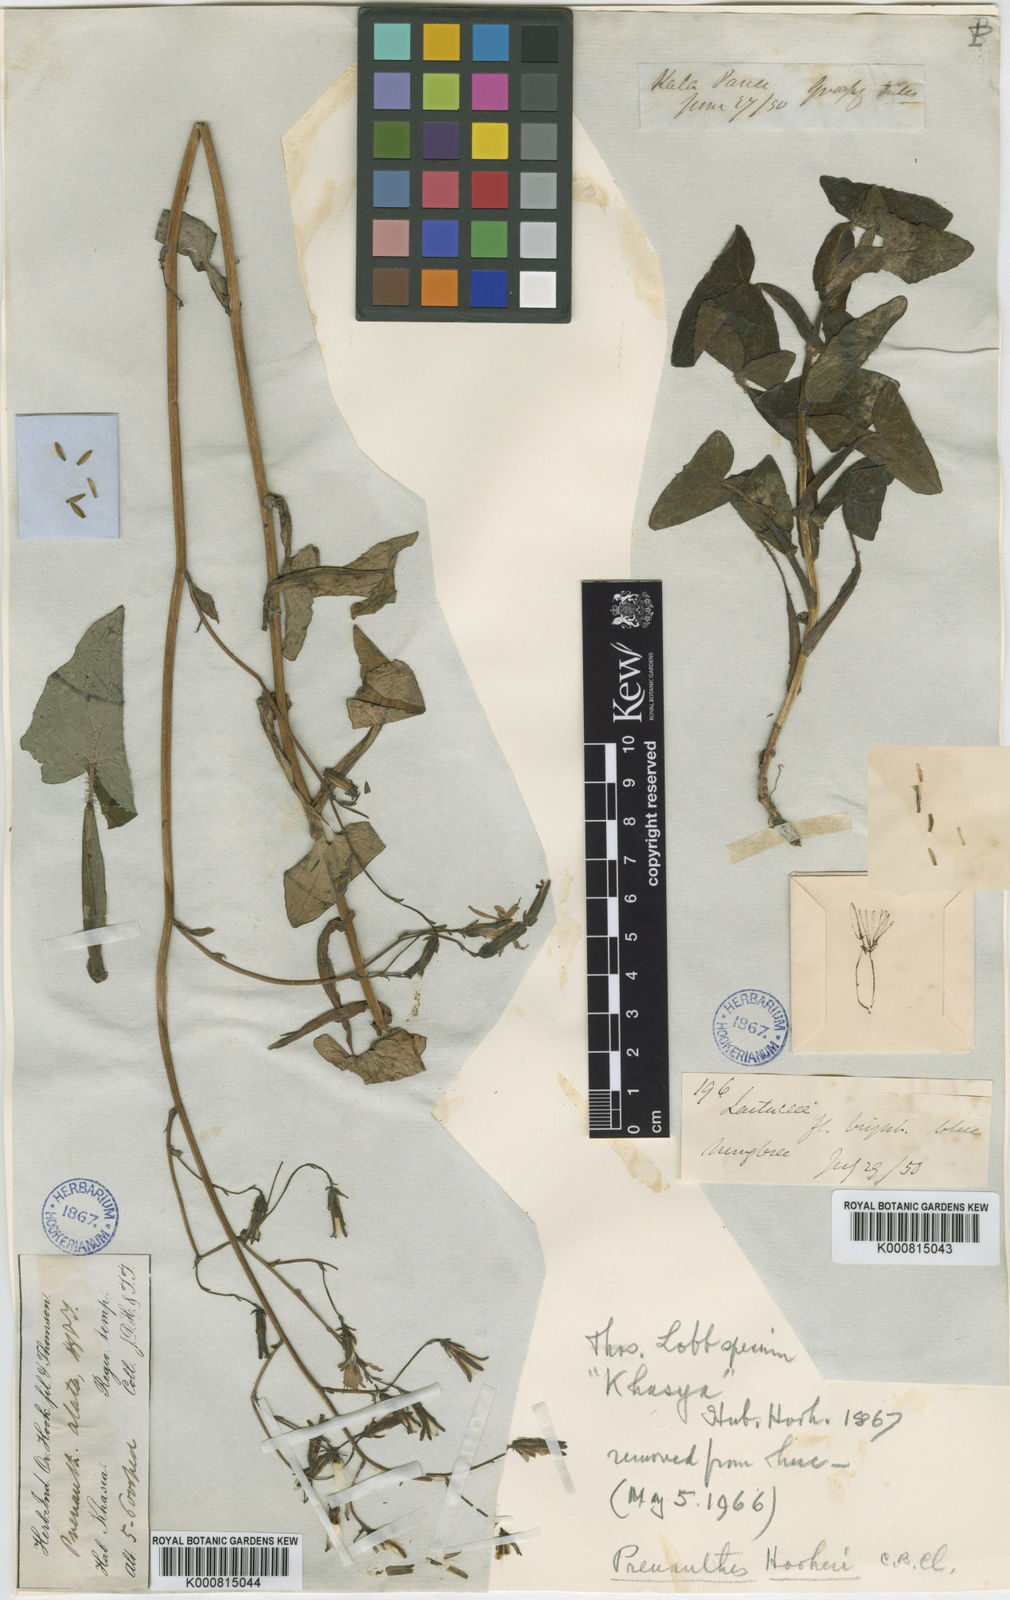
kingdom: Plantae
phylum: Tracheophyta
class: Magnoliopsida
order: Asterales
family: Asteraceae
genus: Prenanthes
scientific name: Prenanthes hookeri
